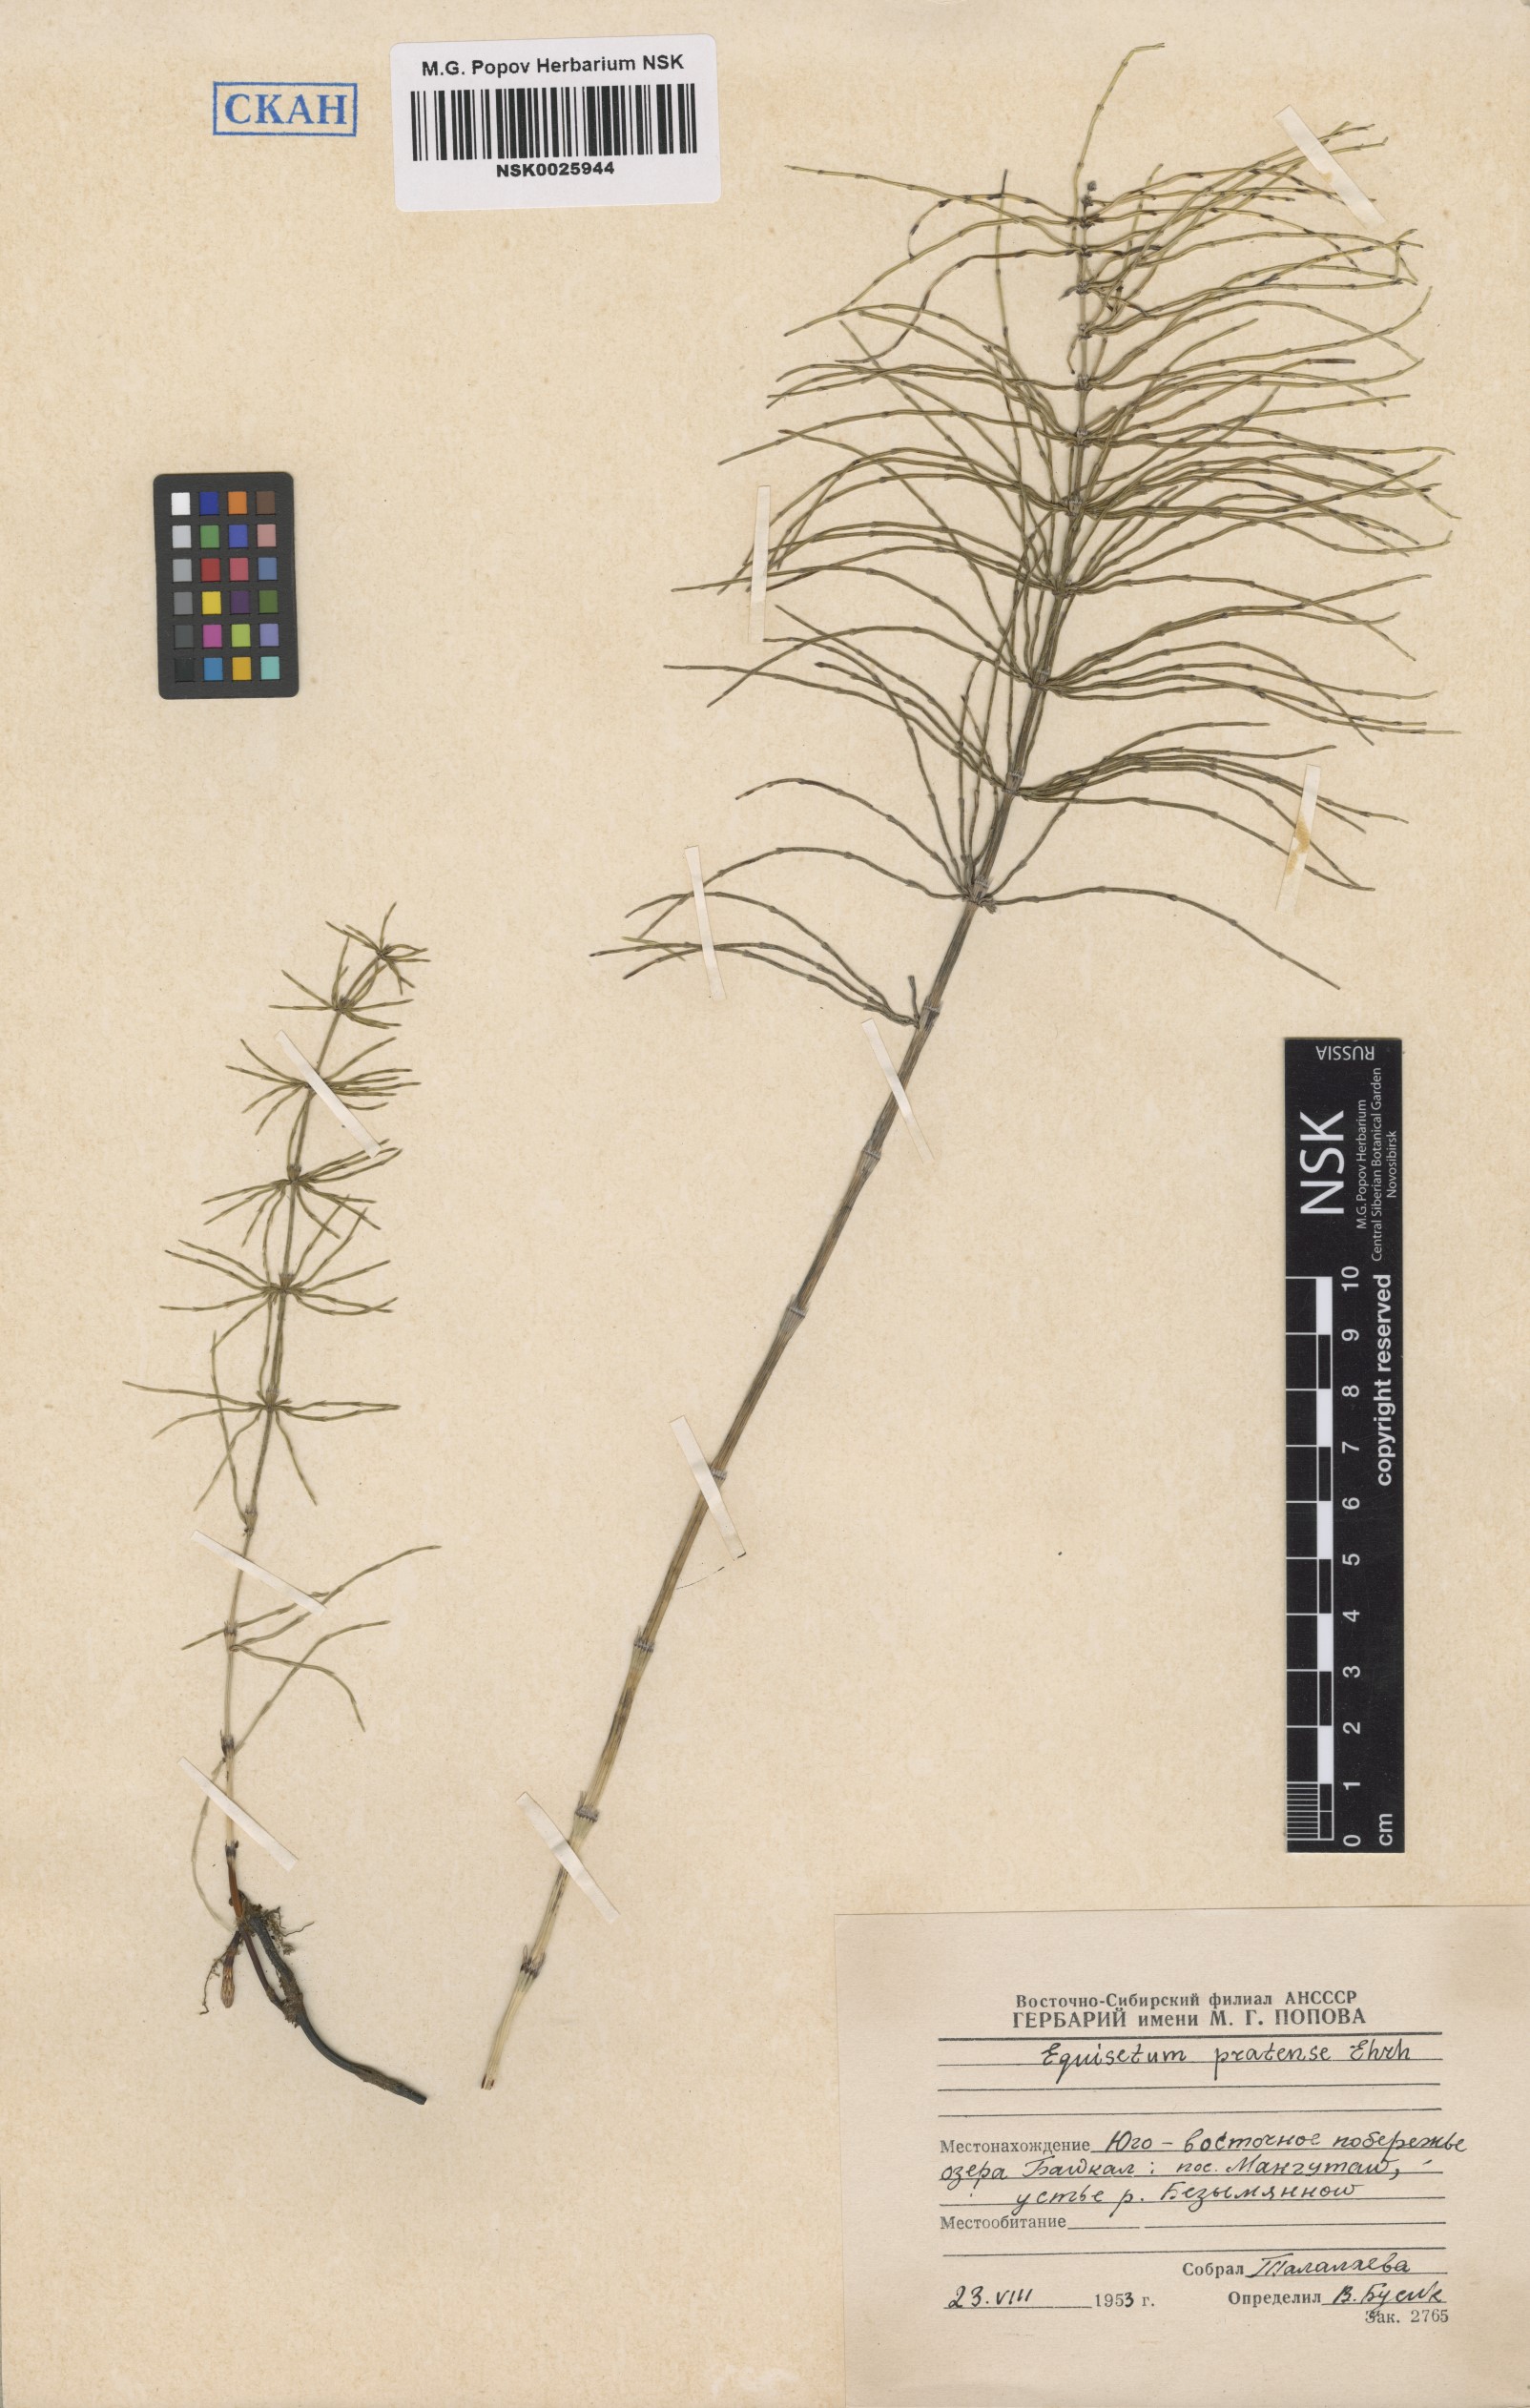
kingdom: Plantae
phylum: Tracheophyta
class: Polypodiopsida
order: Equisetales
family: Equisetaceae
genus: Equisetum
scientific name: Equisetum pratense
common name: Meadow horsetail
